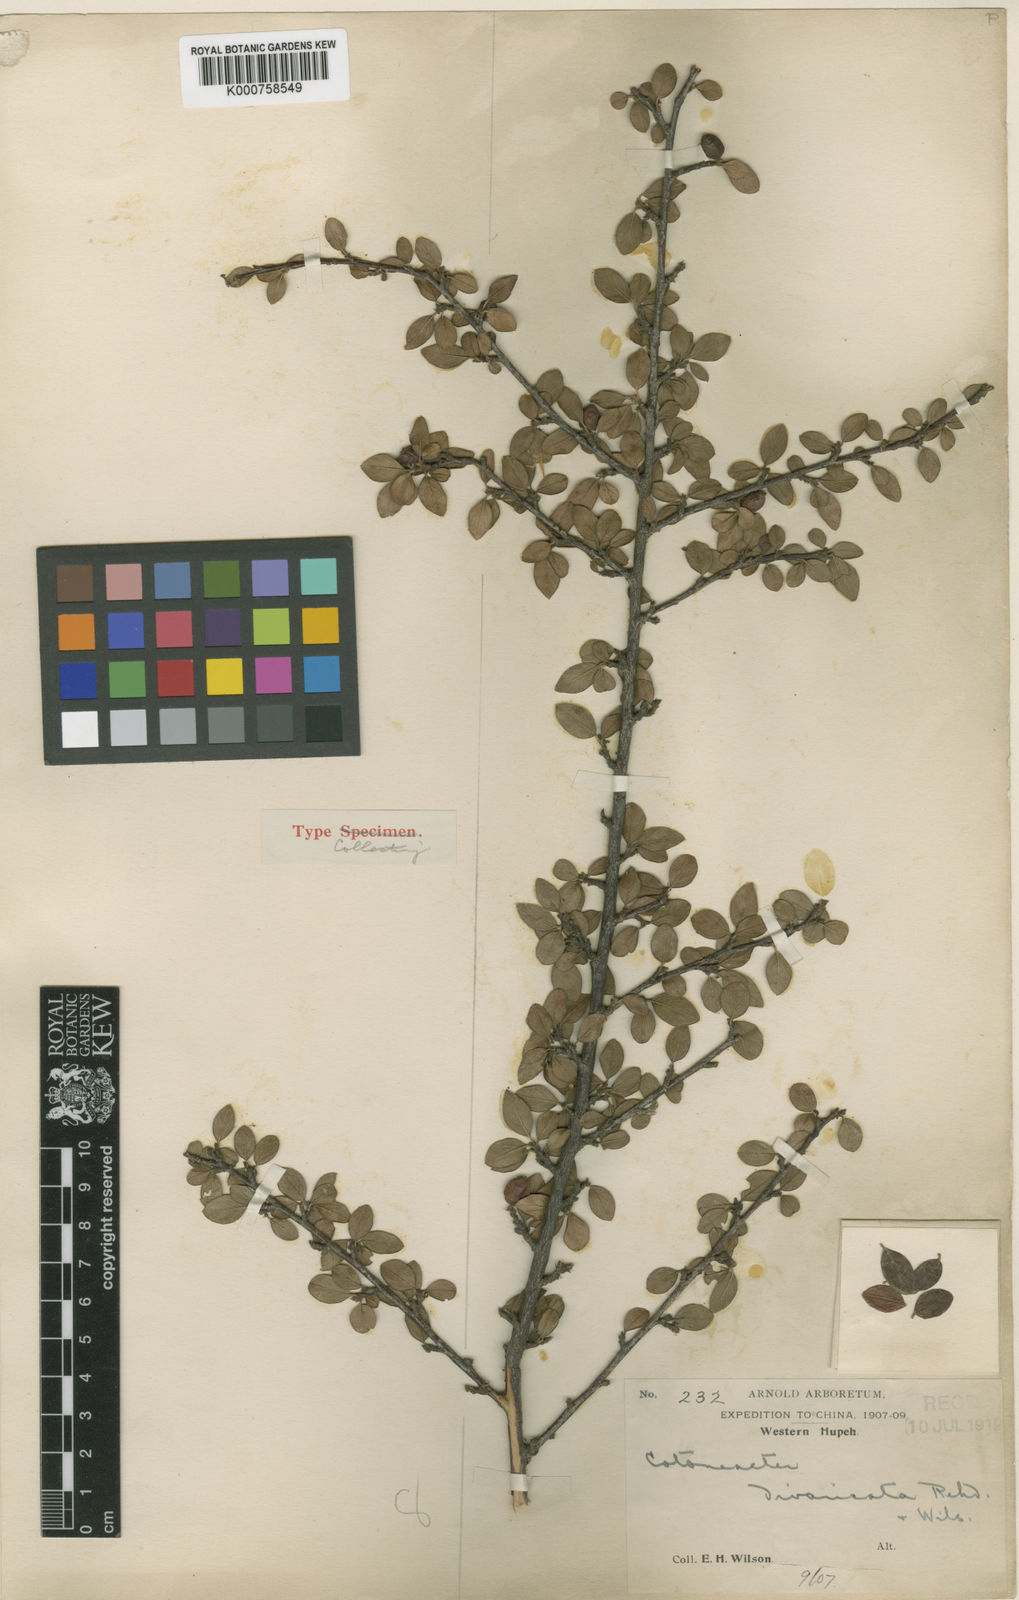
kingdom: Plantae
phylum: Tracheophyta
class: Magnoliopsida
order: Rosales
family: Rosaceae
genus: Cotoneaster
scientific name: Cotoneaster divaricatus
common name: Spreading cotoneaster
